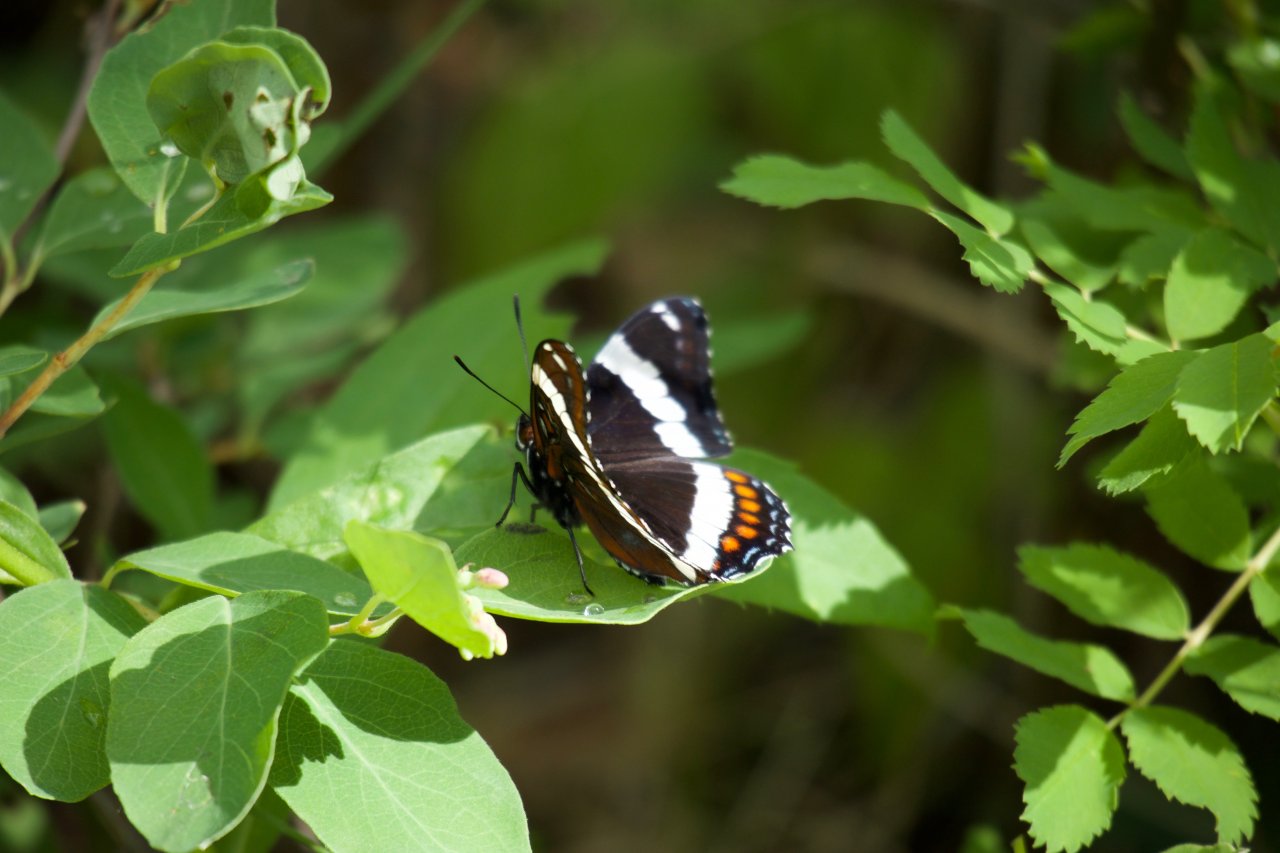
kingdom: Animalia
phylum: Arthropoda
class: Insecta
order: Lepidoptera
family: Nymphalidae
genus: Limenitis
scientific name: Limenitis arthemis
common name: Red-spotted Admiral
